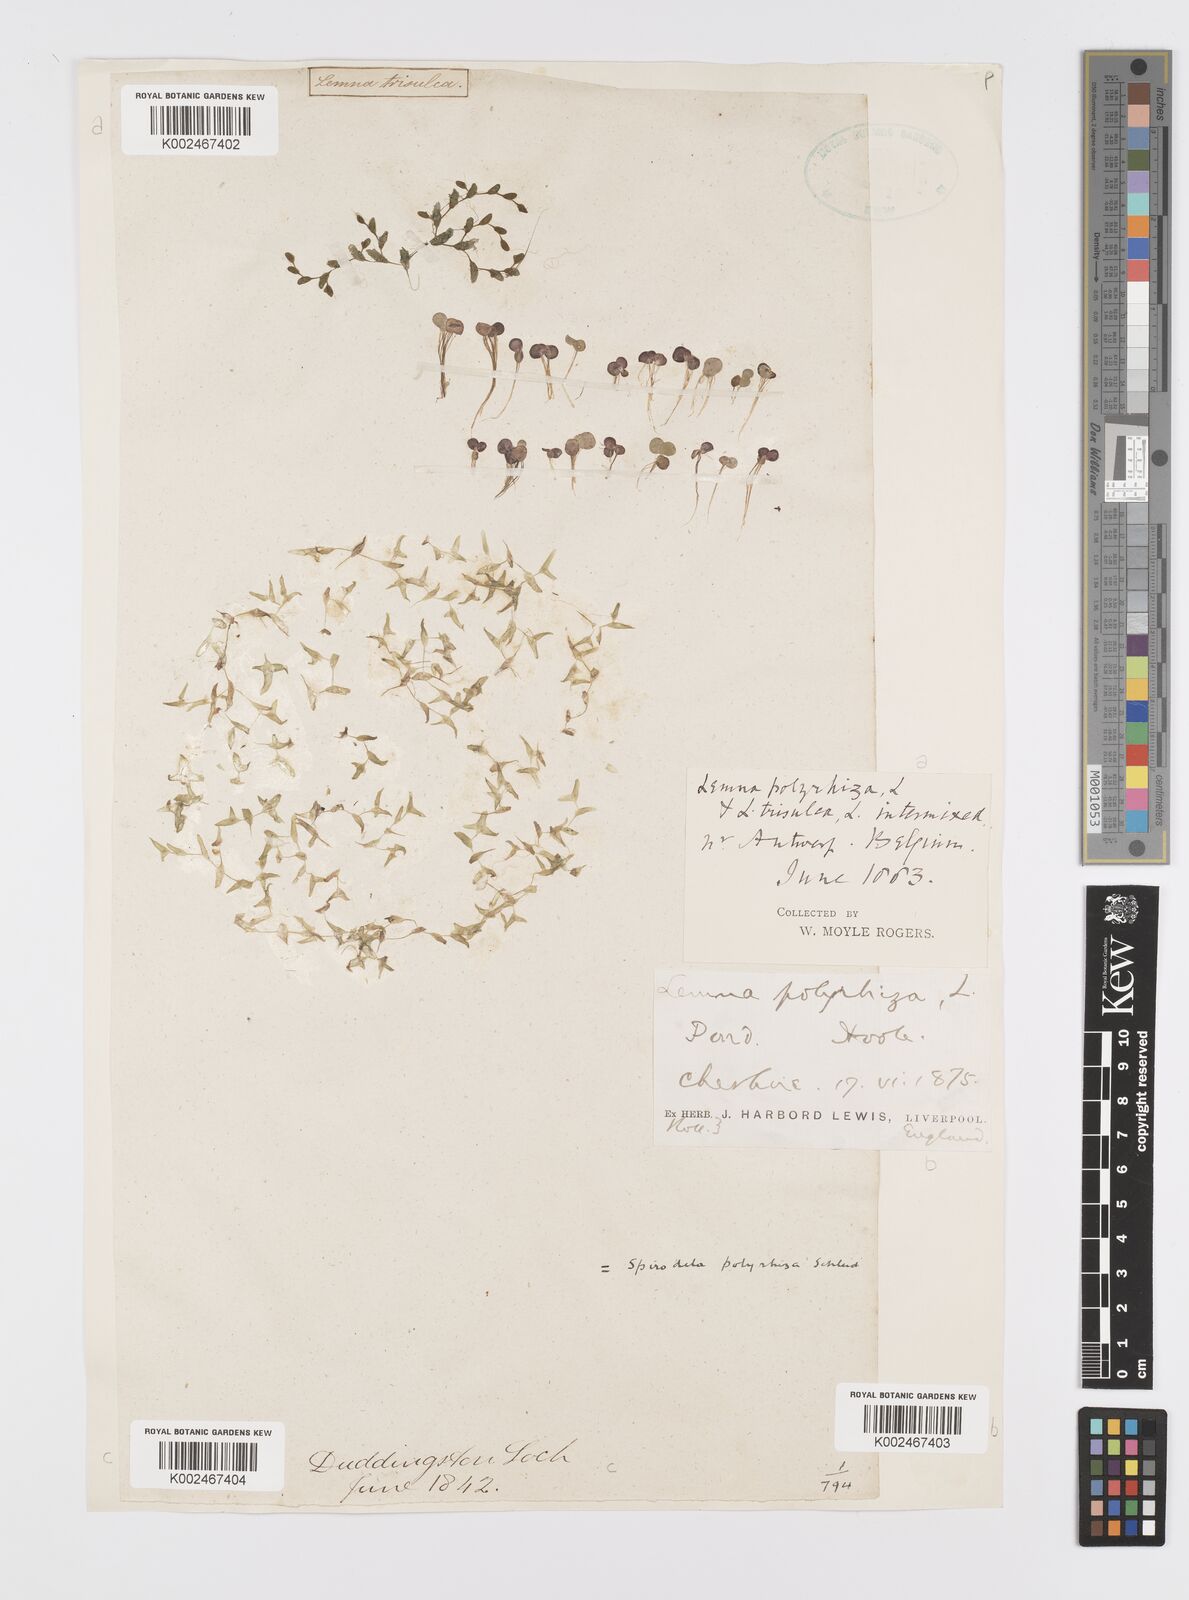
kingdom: Plantae
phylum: Tracheophyta
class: Liliopsida
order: Alismatales
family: Araceae
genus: Spirodela
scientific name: Spirodela polyrhiza
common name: Great duckweed
